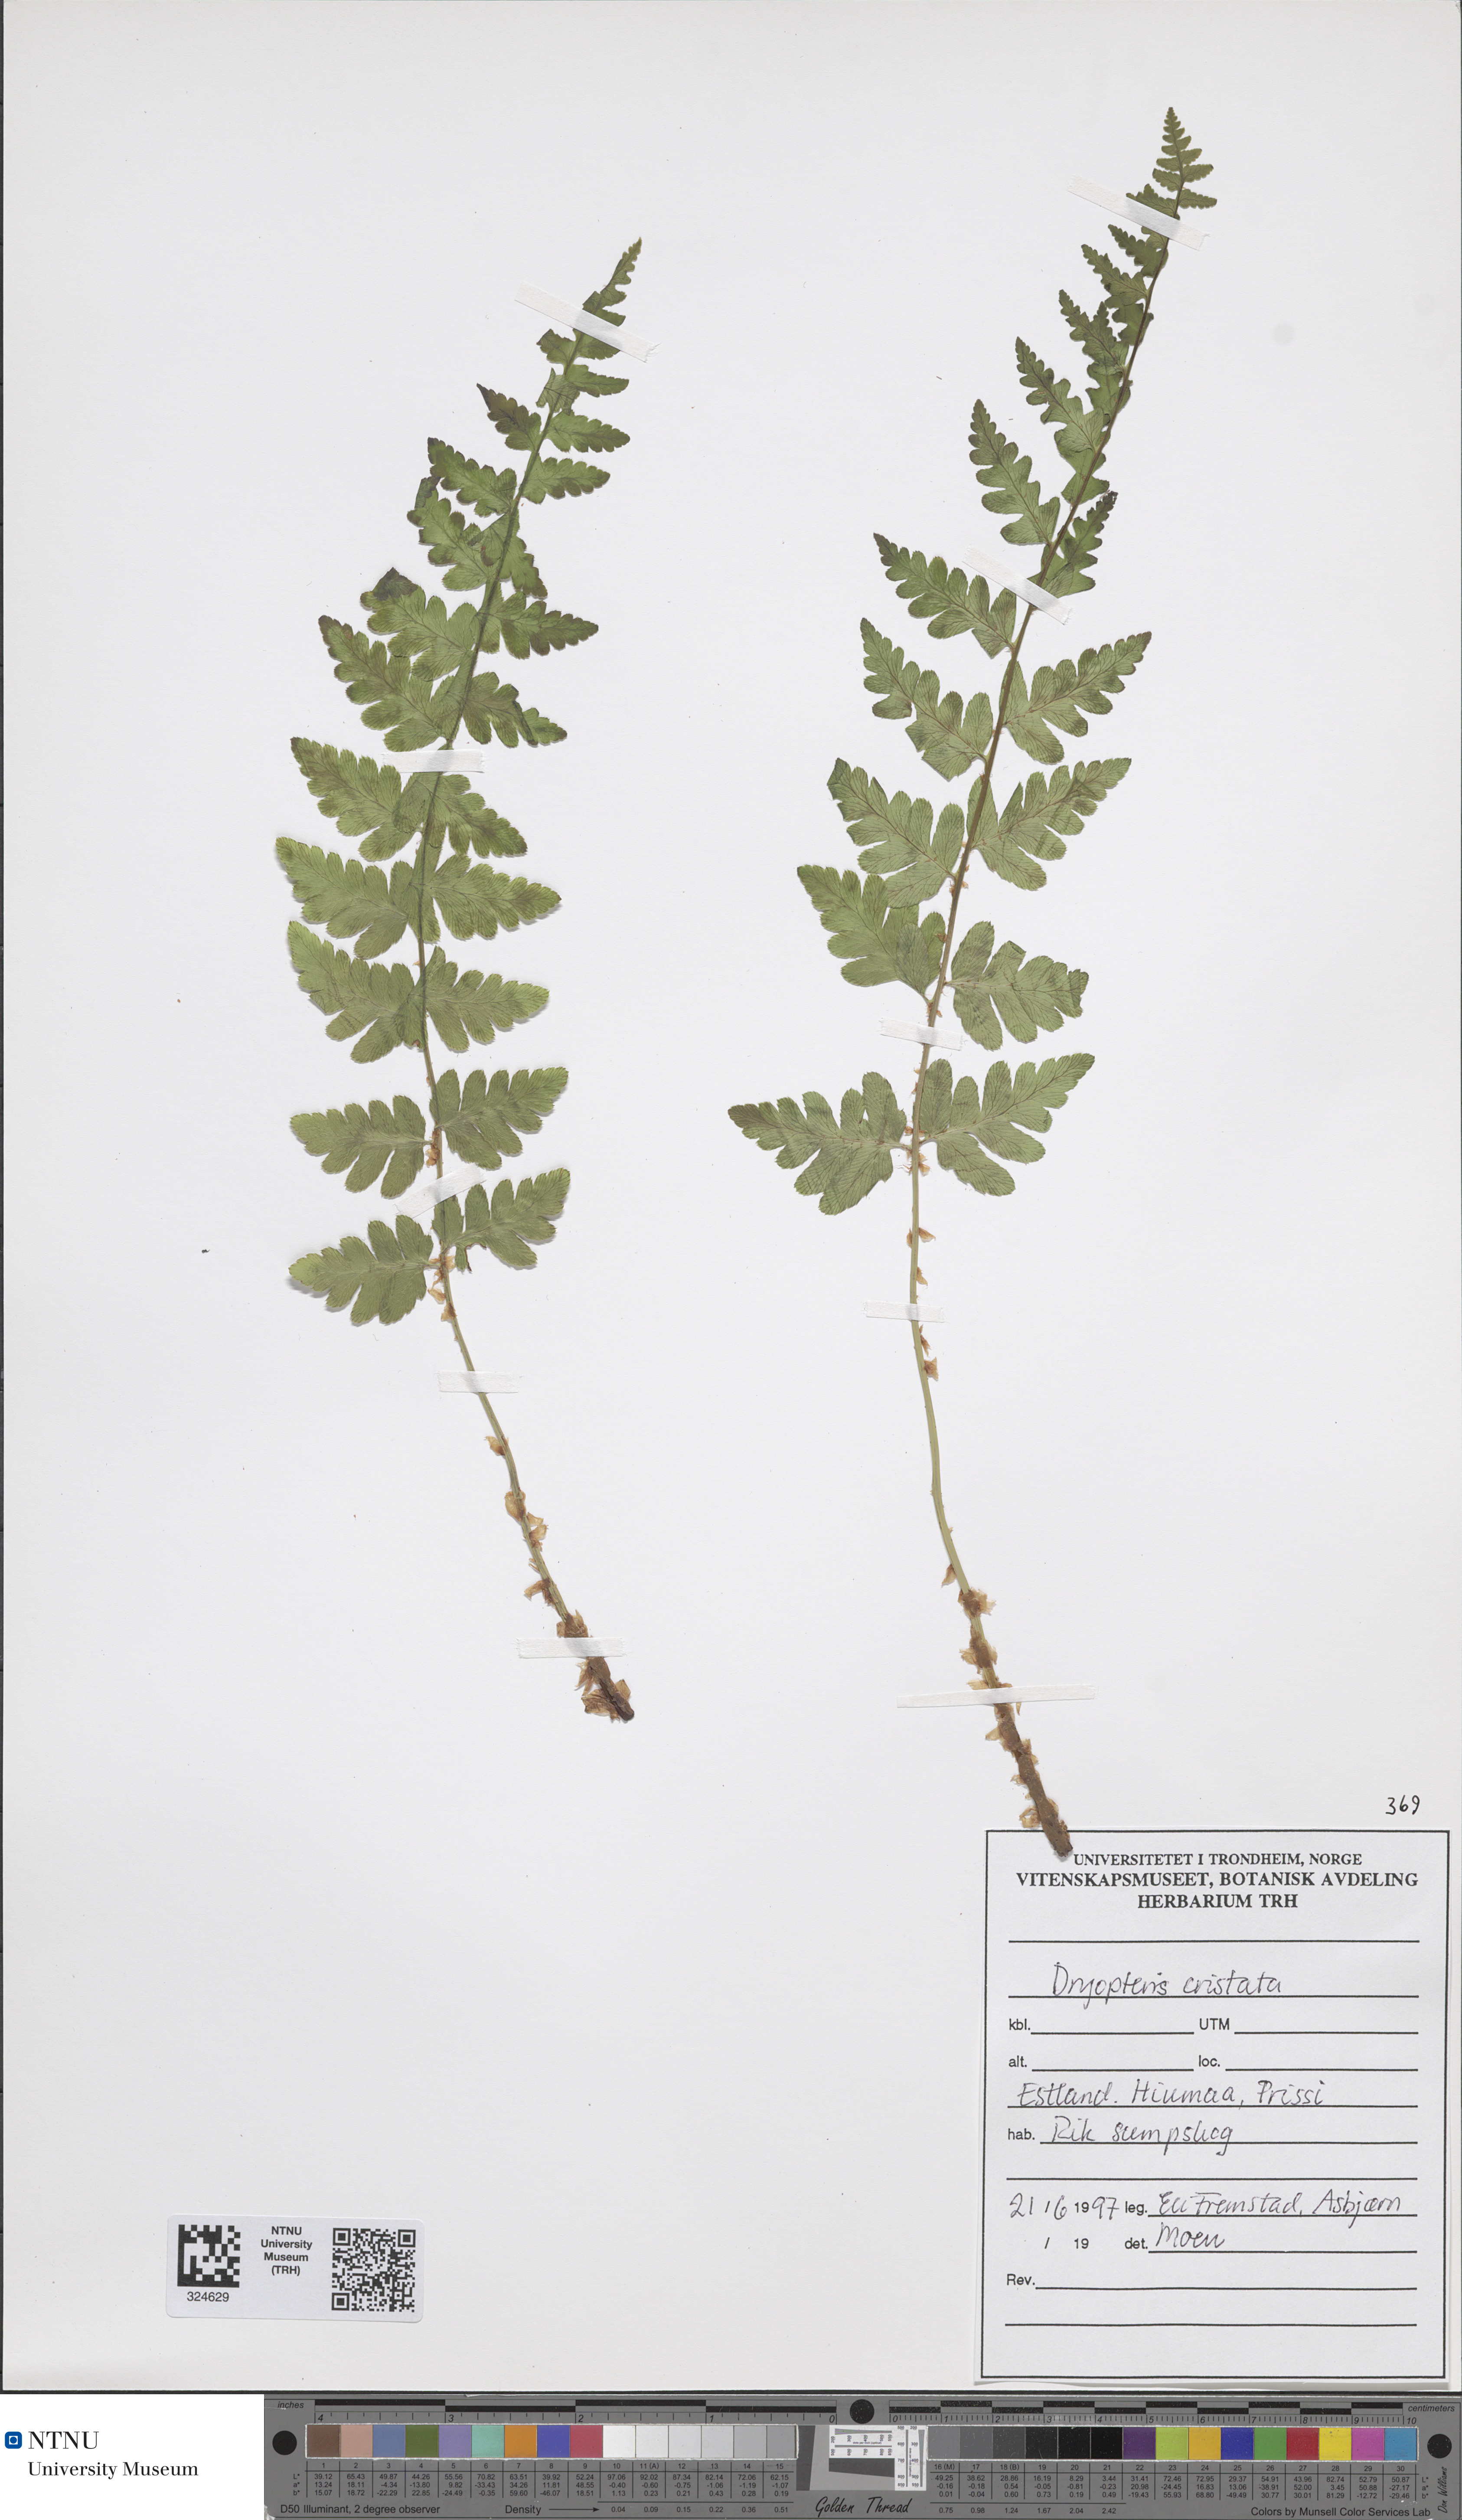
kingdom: Plantae
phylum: Tracheophyta
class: Polypodiopsida
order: Polypodiales
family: Dryopteridaceae
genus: Dryopteris
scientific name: Dryopteris cristata
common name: Crested wood fern
